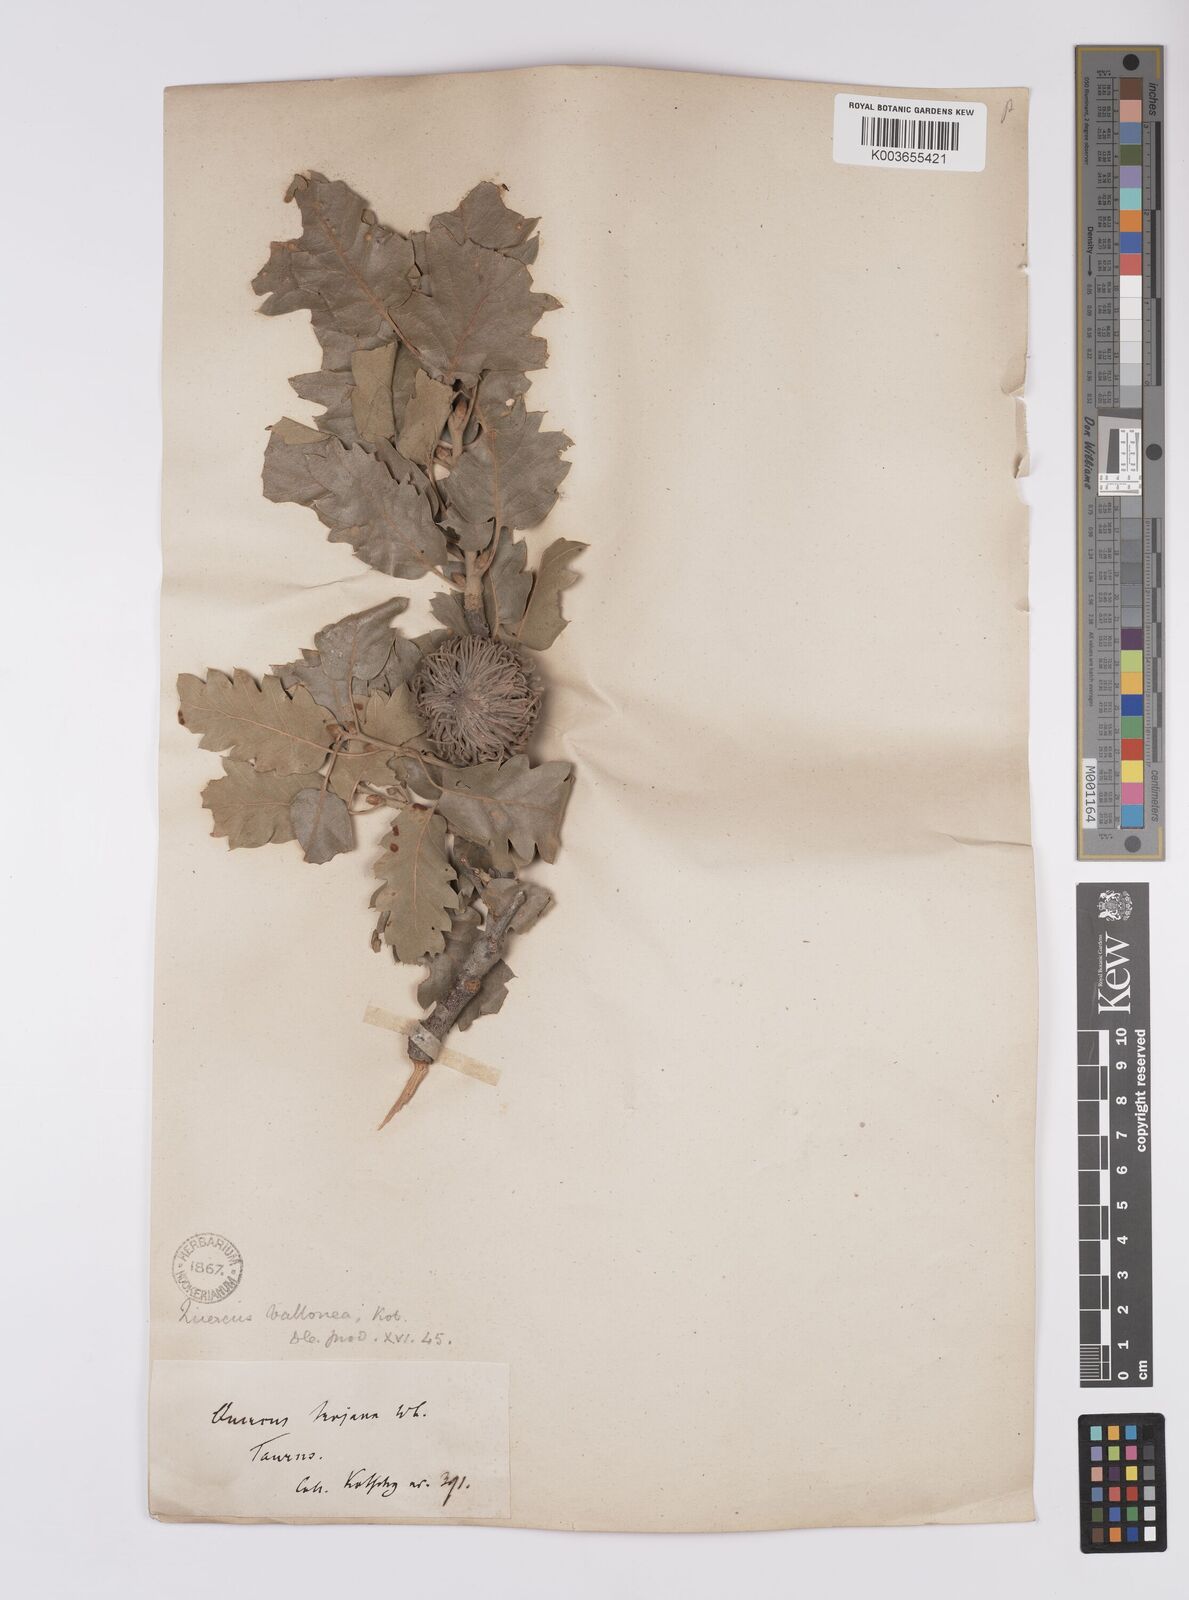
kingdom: Plantae
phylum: Tracheophyta
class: Magnoliopsida
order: Fagales
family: Fagaceae
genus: Quercus
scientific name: Quercus
